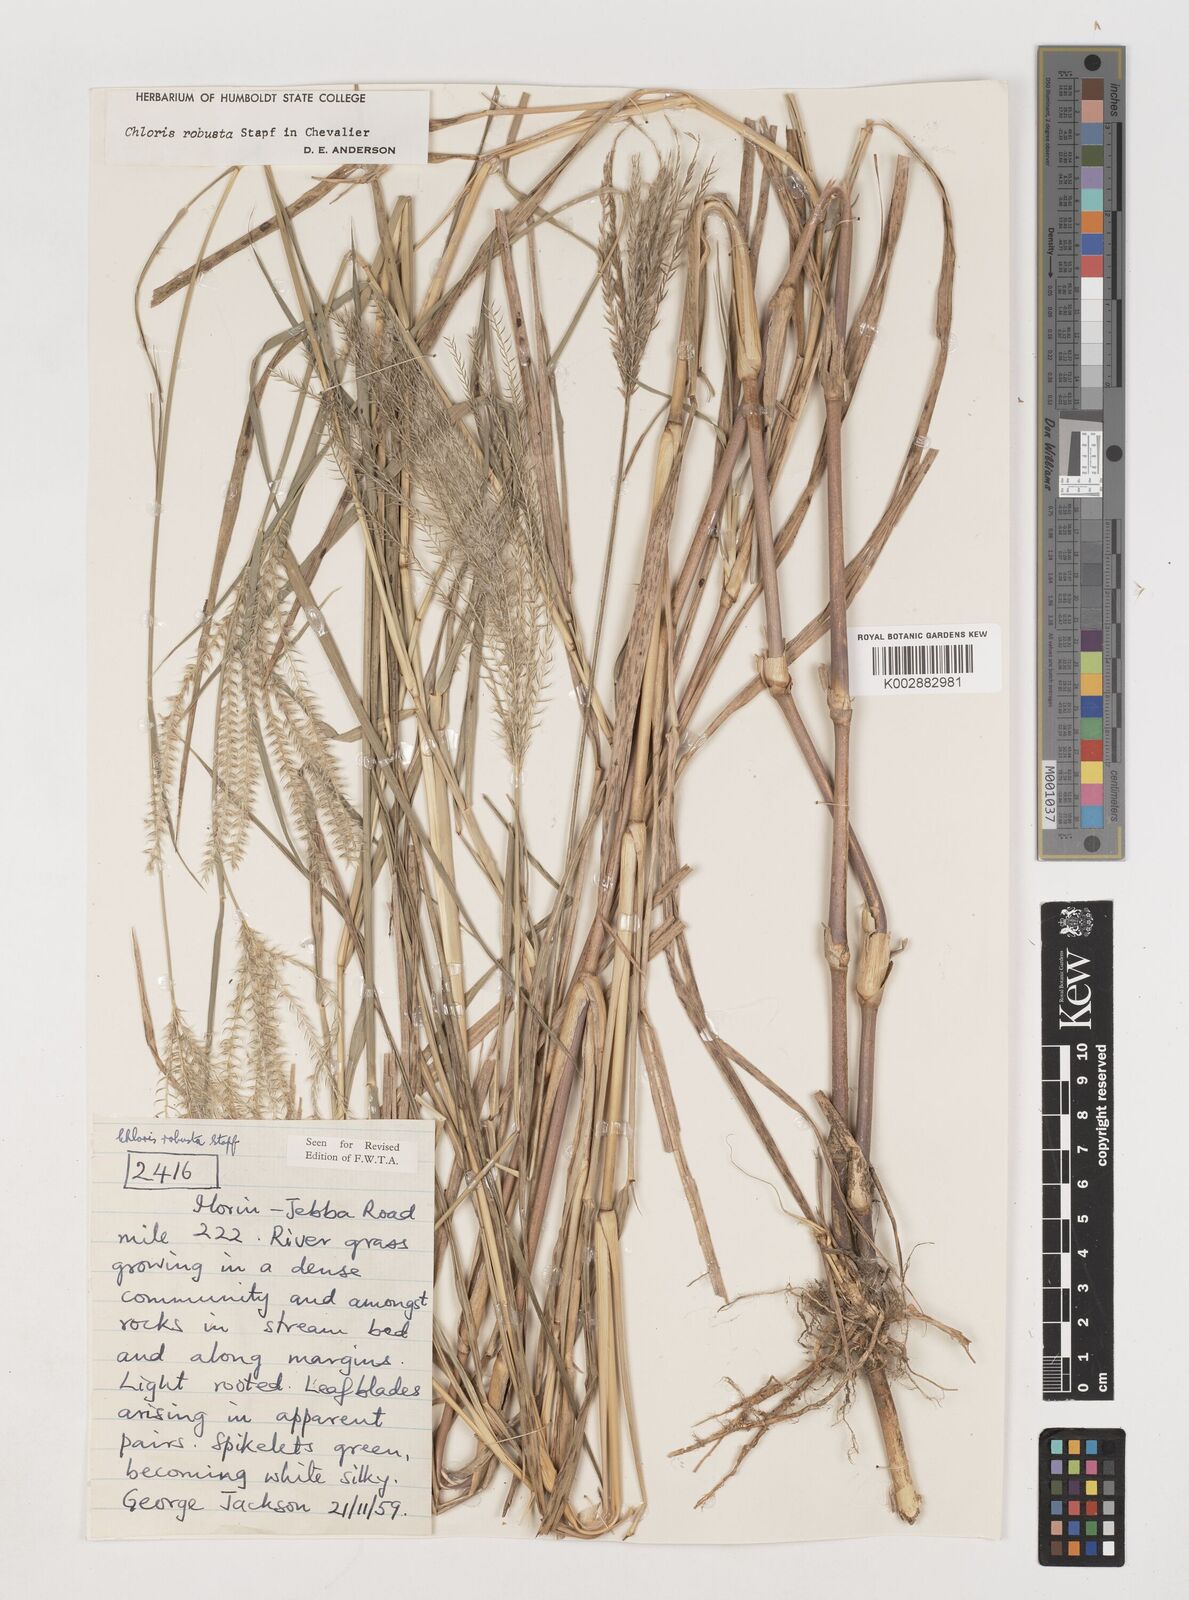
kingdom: Plantae
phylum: Tracheophyta
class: Liliopsida
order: Poales
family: Poaceae
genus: Chloris
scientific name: Chloris robusta
